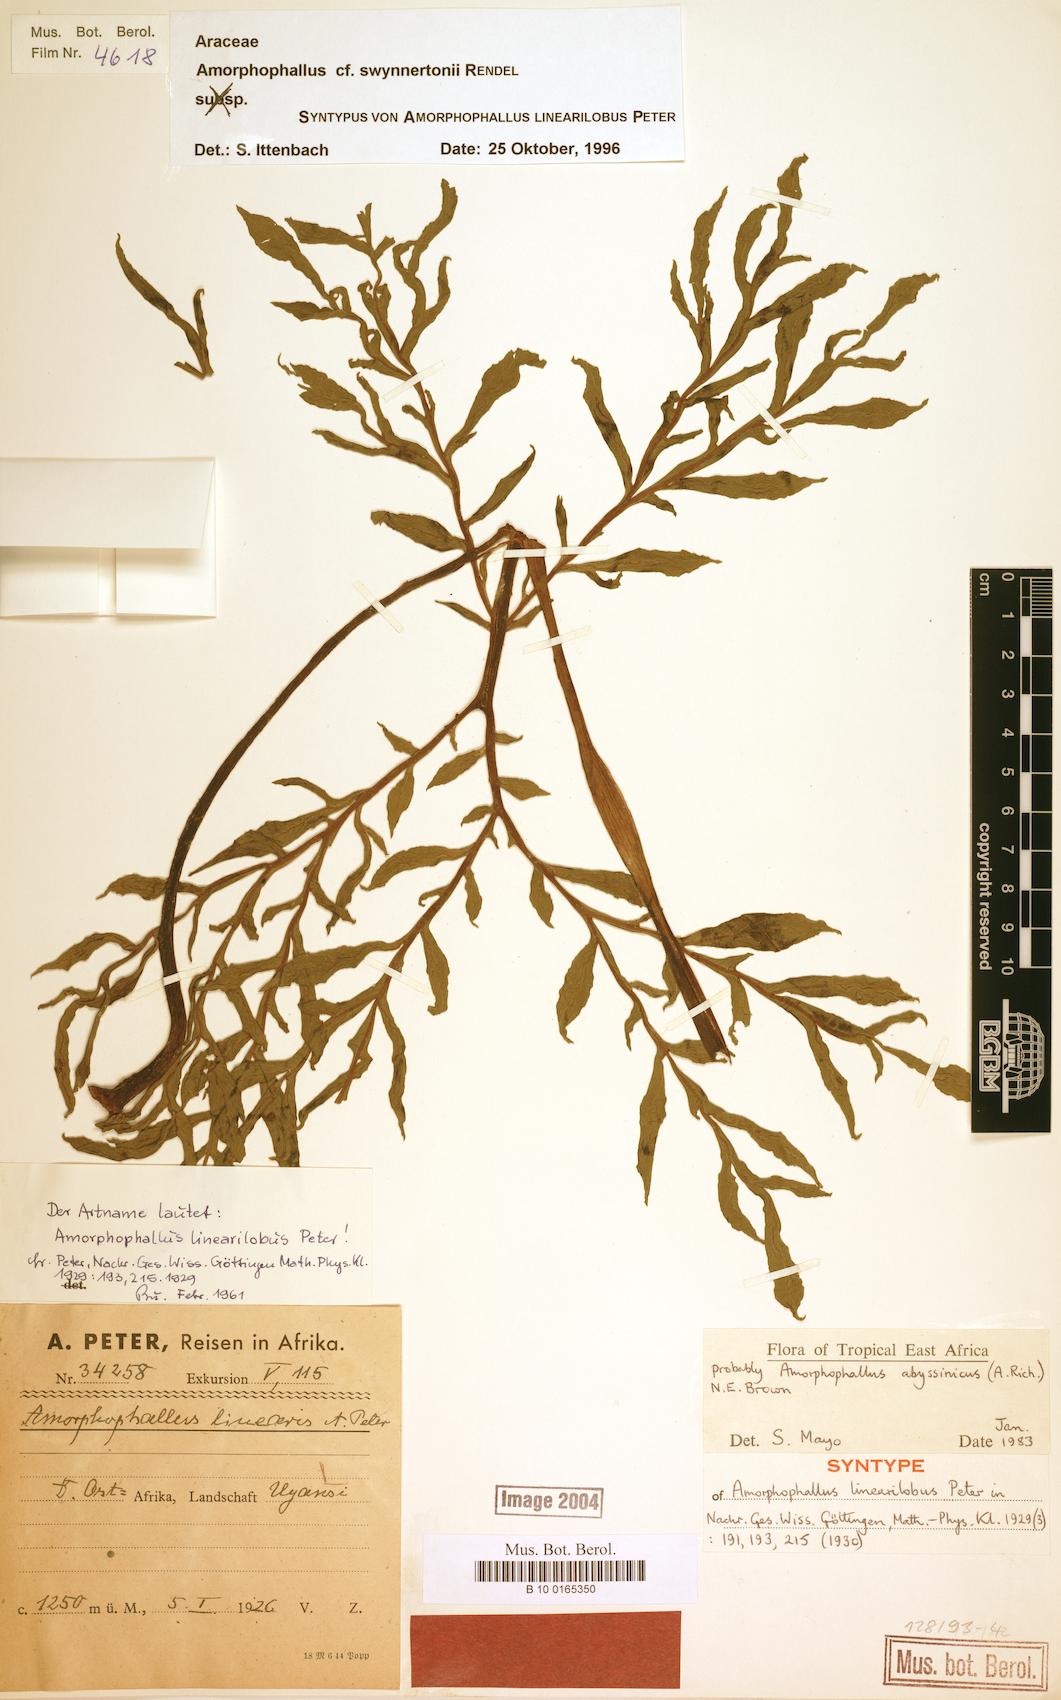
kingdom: Plantae
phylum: Tracheophyta
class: Liliopsida
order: Alismatales
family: Araceae
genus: Amorphophallus
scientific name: Amorphophallus mossambicensis
